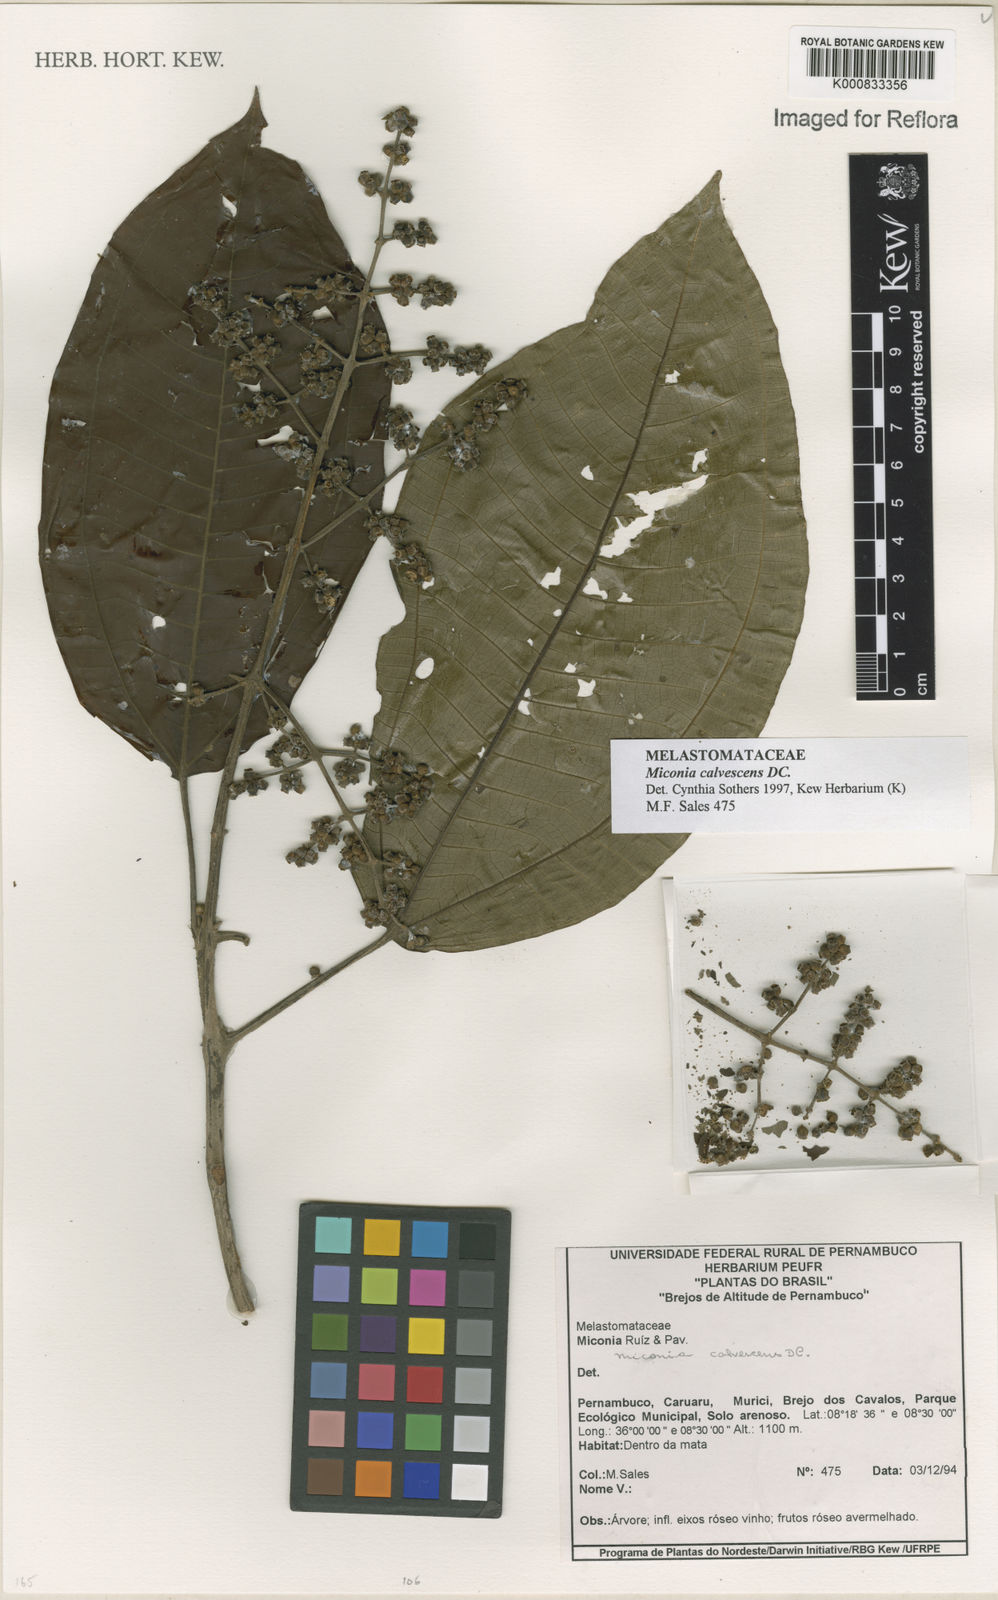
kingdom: Plantae
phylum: Tracheophyta
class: Magnoliopsida
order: Myrtales
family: Melastomataceae
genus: Miconia
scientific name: Miconia calvescens
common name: Purple plague
